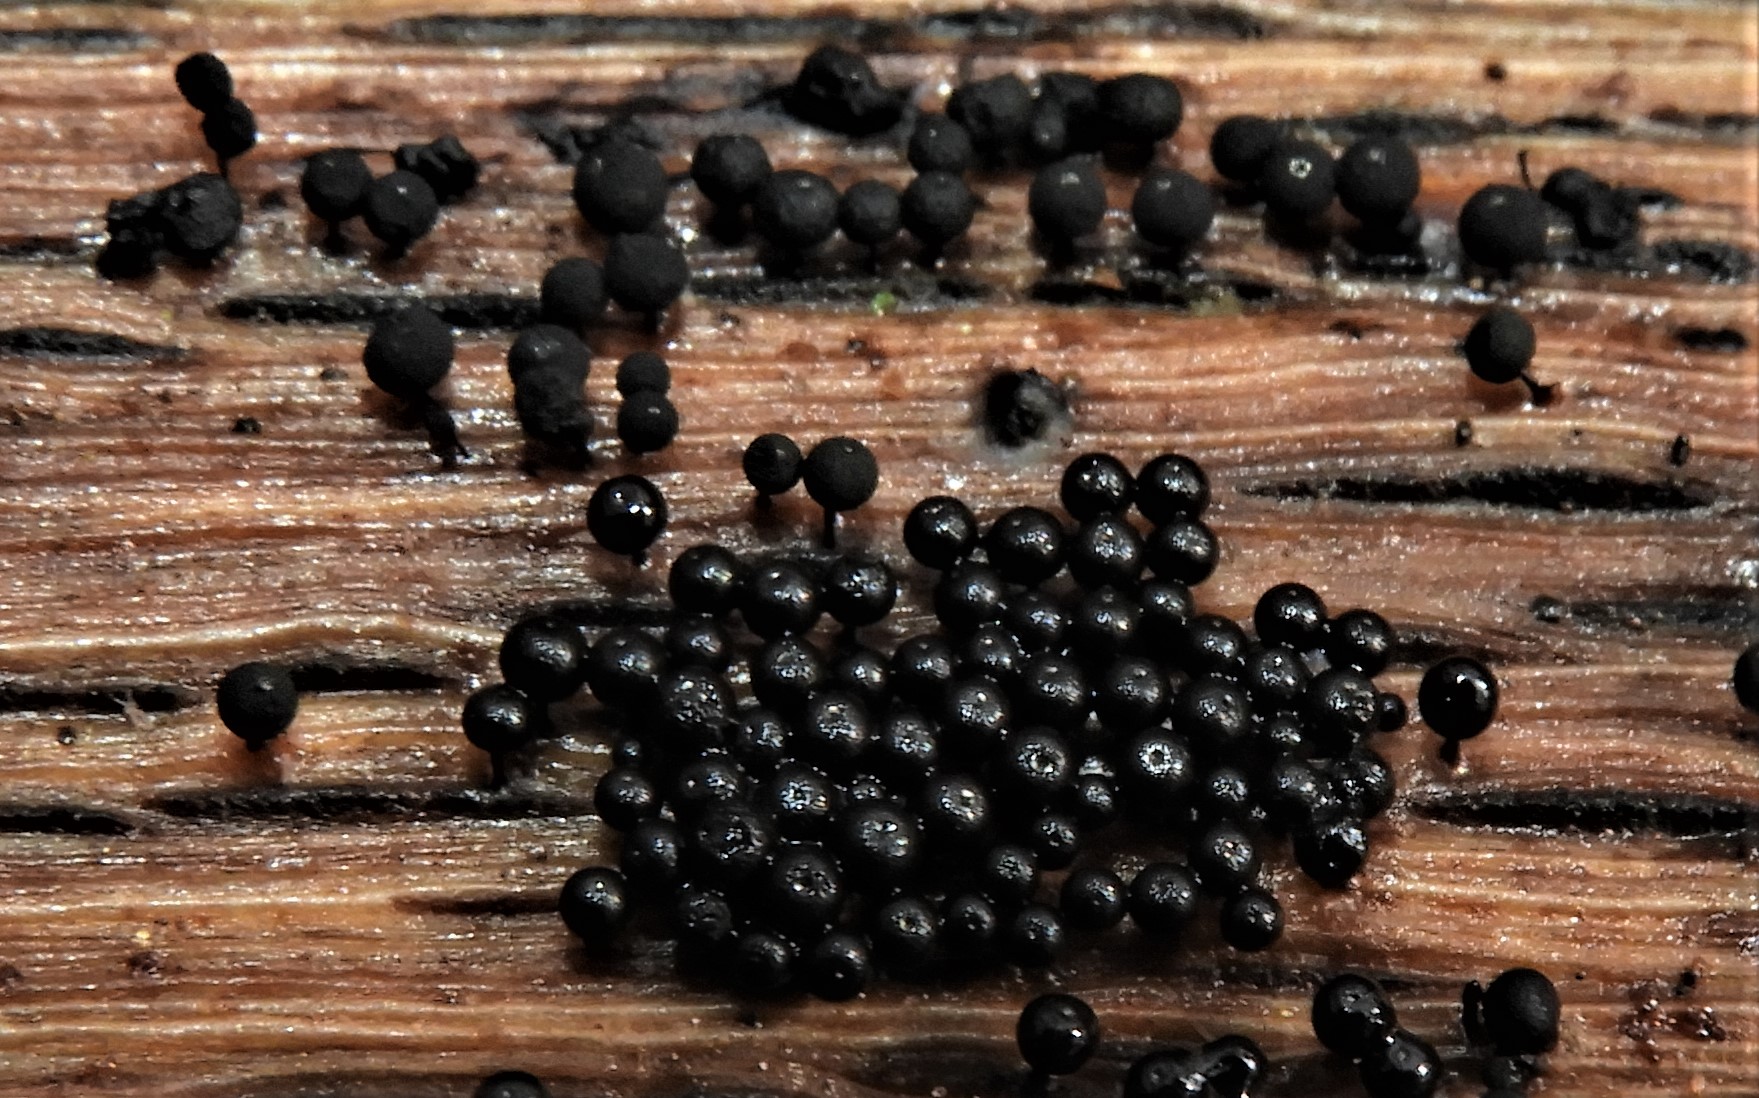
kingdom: Protozoa
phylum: Mycetozoa
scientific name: Mycetozoa
